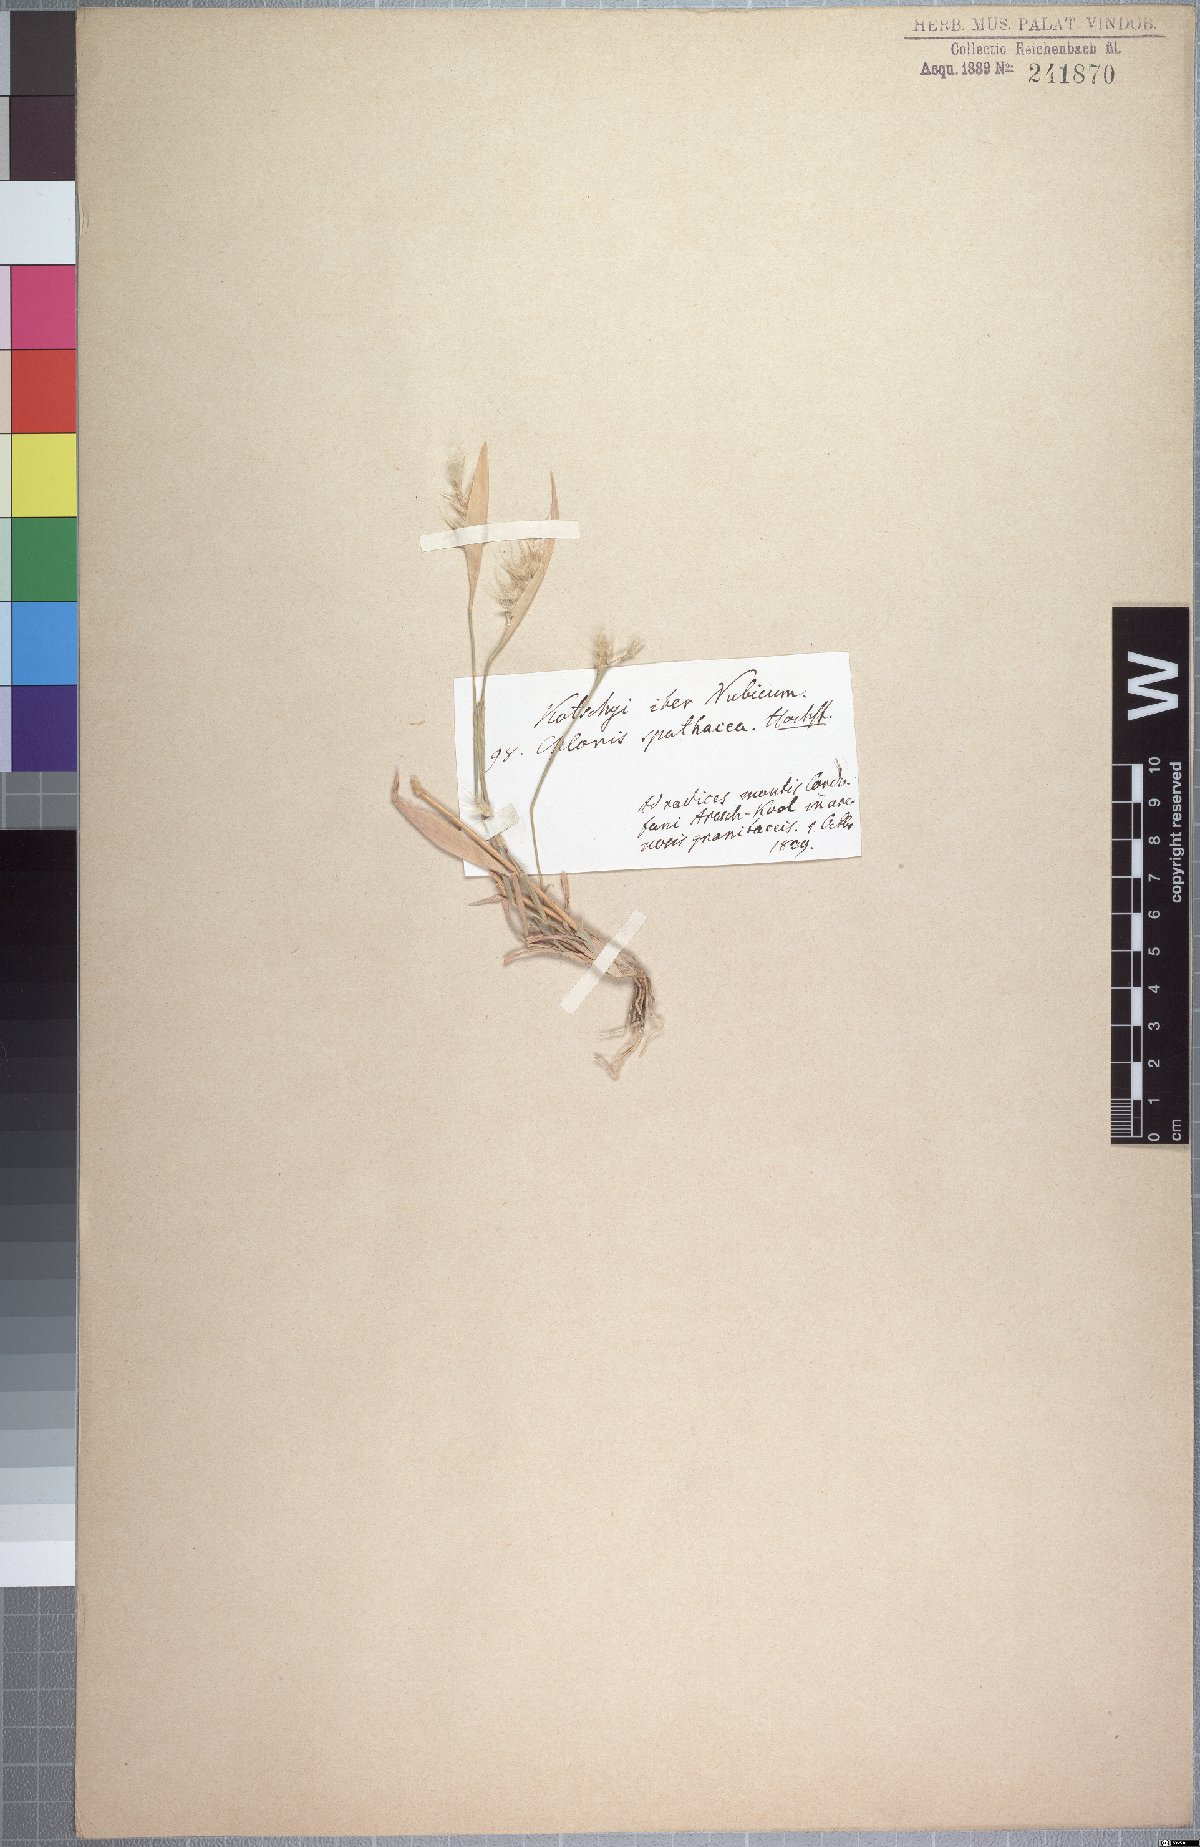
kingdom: Plantae
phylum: Tracheophyta
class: Liliopsida
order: Poales
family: Poaceae
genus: Tetrapogon
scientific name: Tetrapogon cenchriformis
